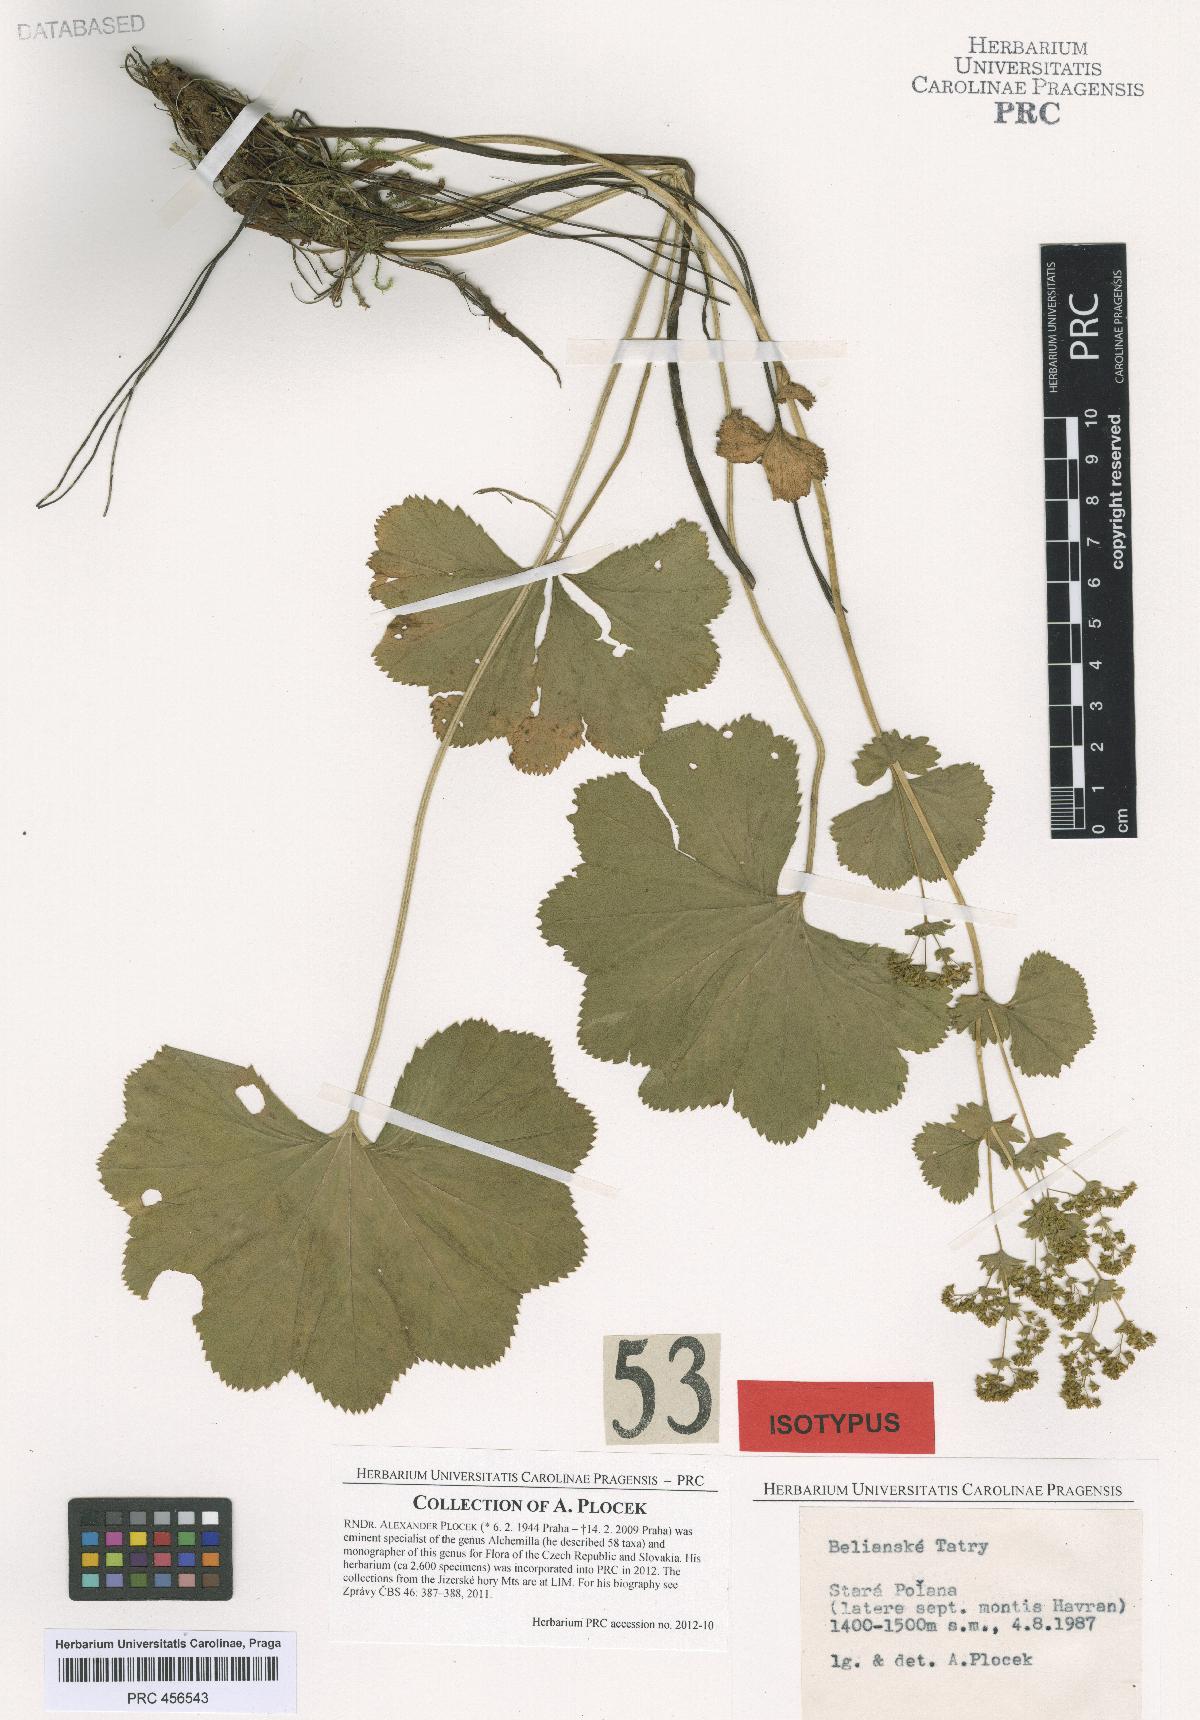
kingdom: Plantae
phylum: Tracheophyta
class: Magnoliopsida
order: Rosales
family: Rosaceae
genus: Alchemilla
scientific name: Alchemilla amauroptera
